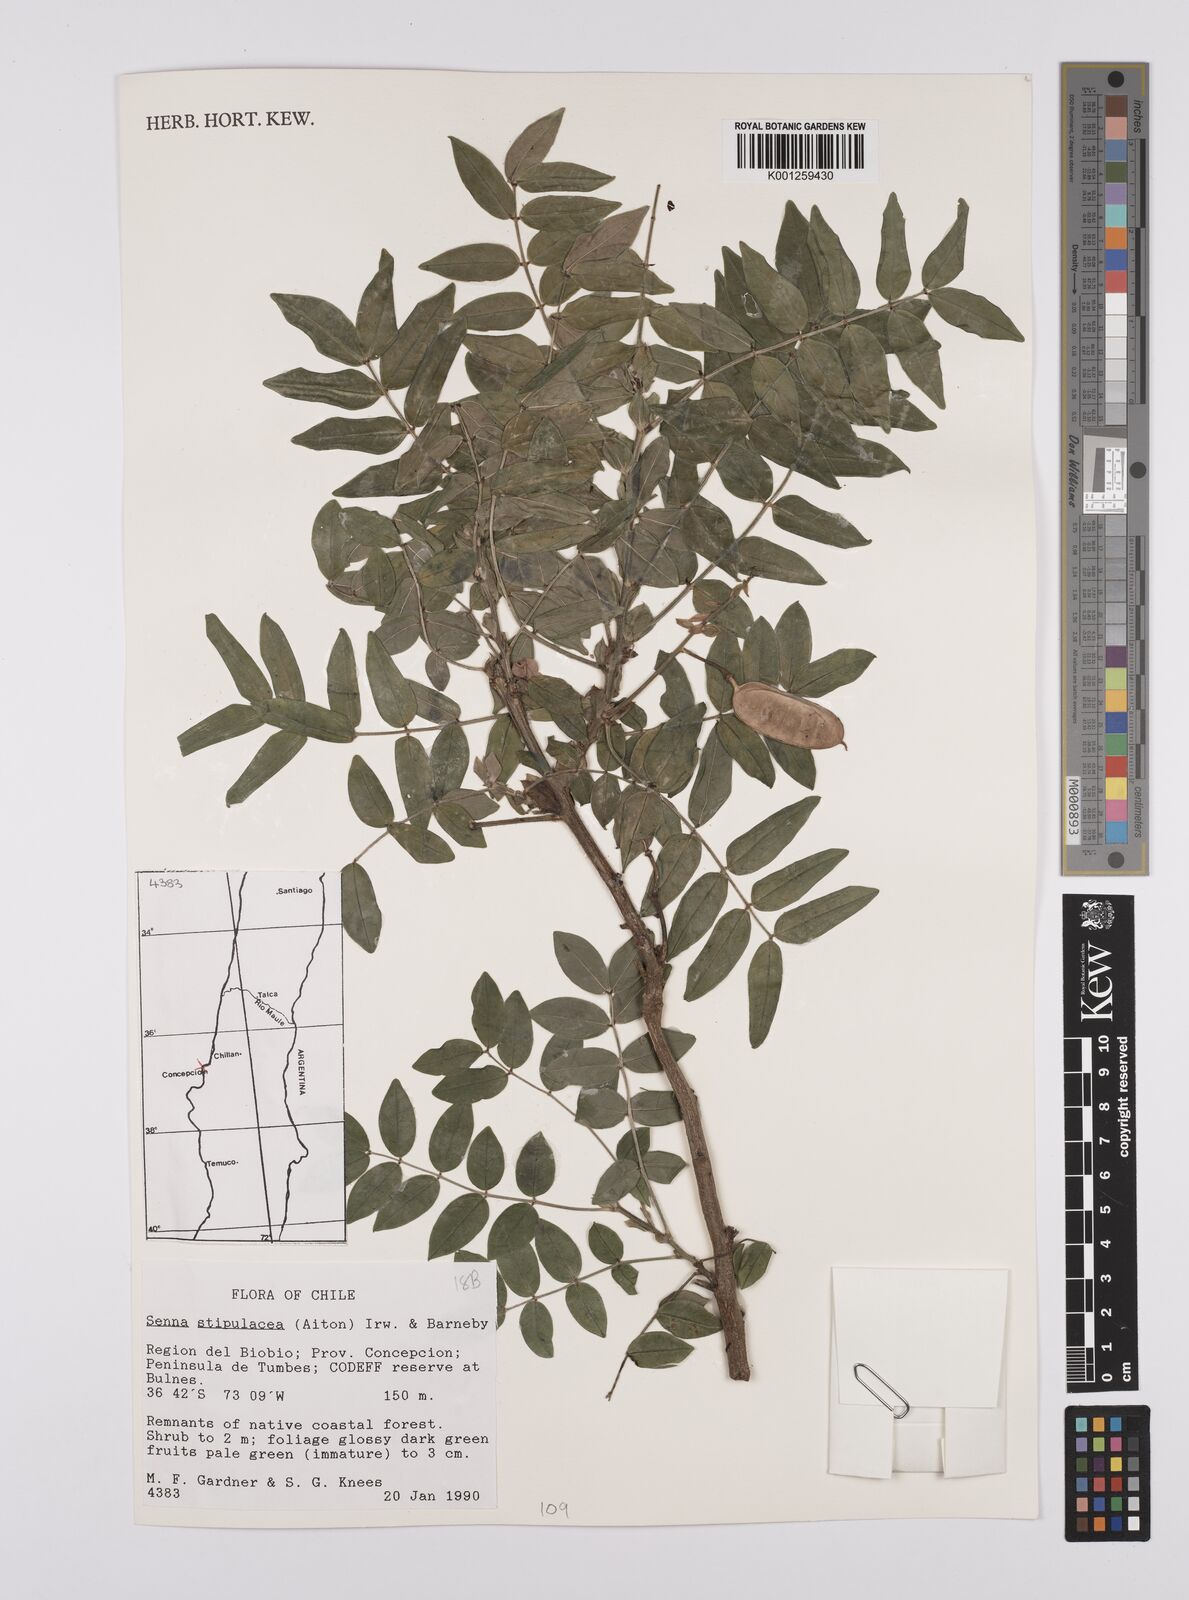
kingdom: Plantae
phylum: Tracheophyta
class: Magnoliopsida
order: Fabales
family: Fabaceae
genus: Senna
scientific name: Senna stipulacea
